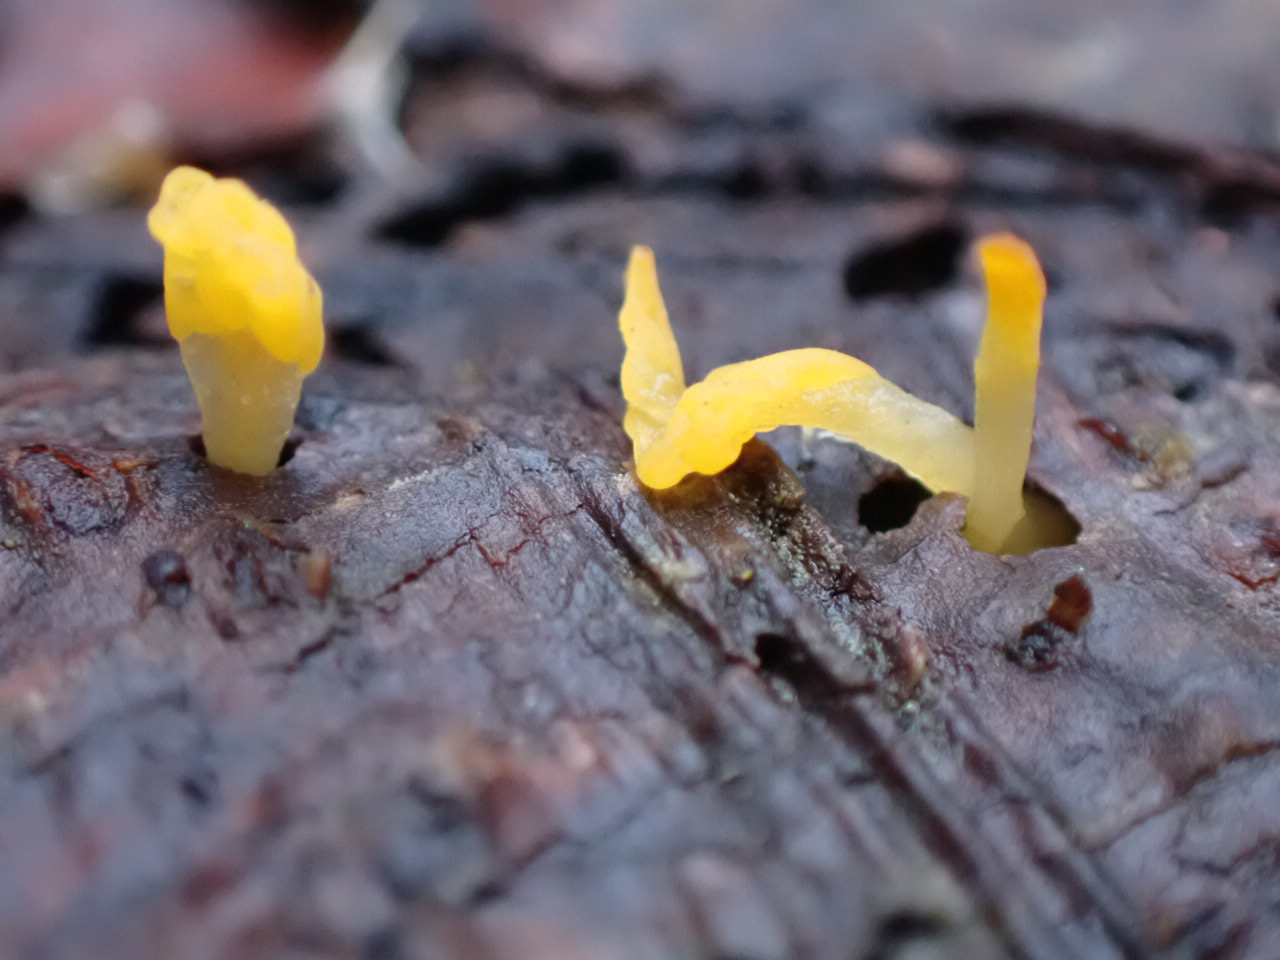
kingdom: Fungi
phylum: Basidiomycota
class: Dacrymycetes
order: Dacrymycetales
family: Dacrymycetaceae
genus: Calocera
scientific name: Calocera furcata
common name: fyrre-guldgaffel
